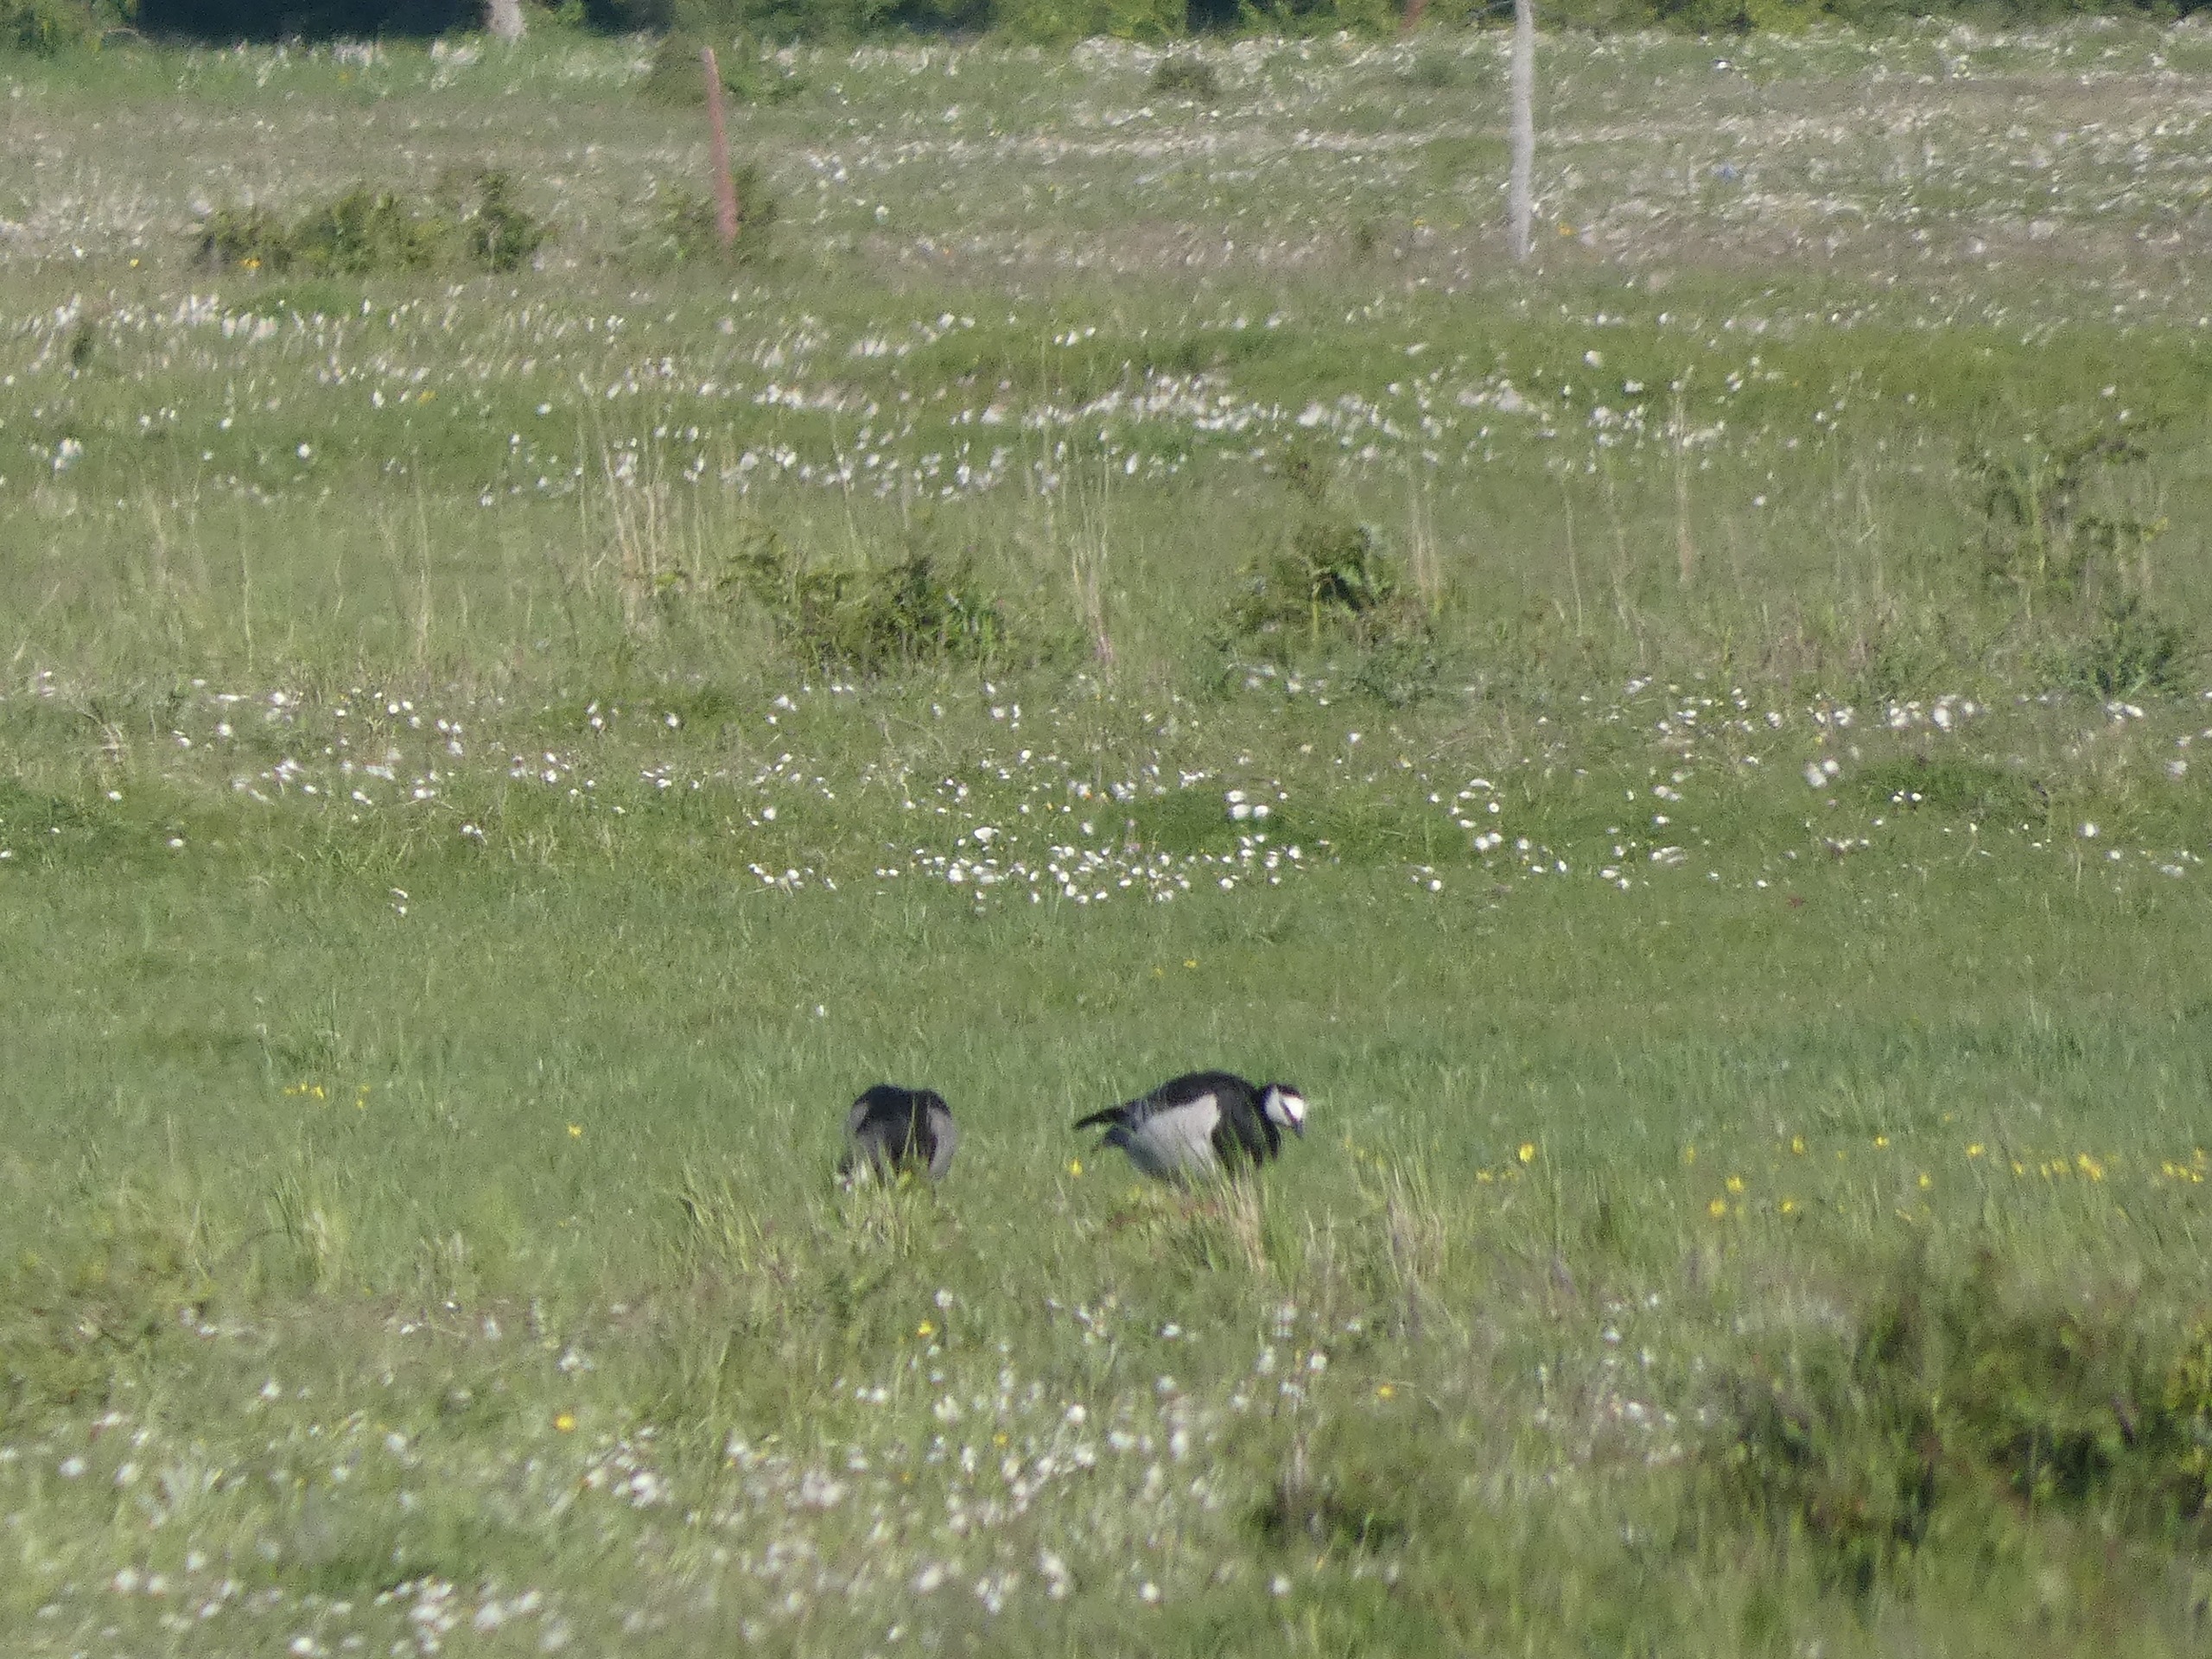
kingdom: Animalia
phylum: Chordata
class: Aves
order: Anseriformes
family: Anatidae
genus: Branta
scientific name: Branta leucopsis
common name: Bramgås
